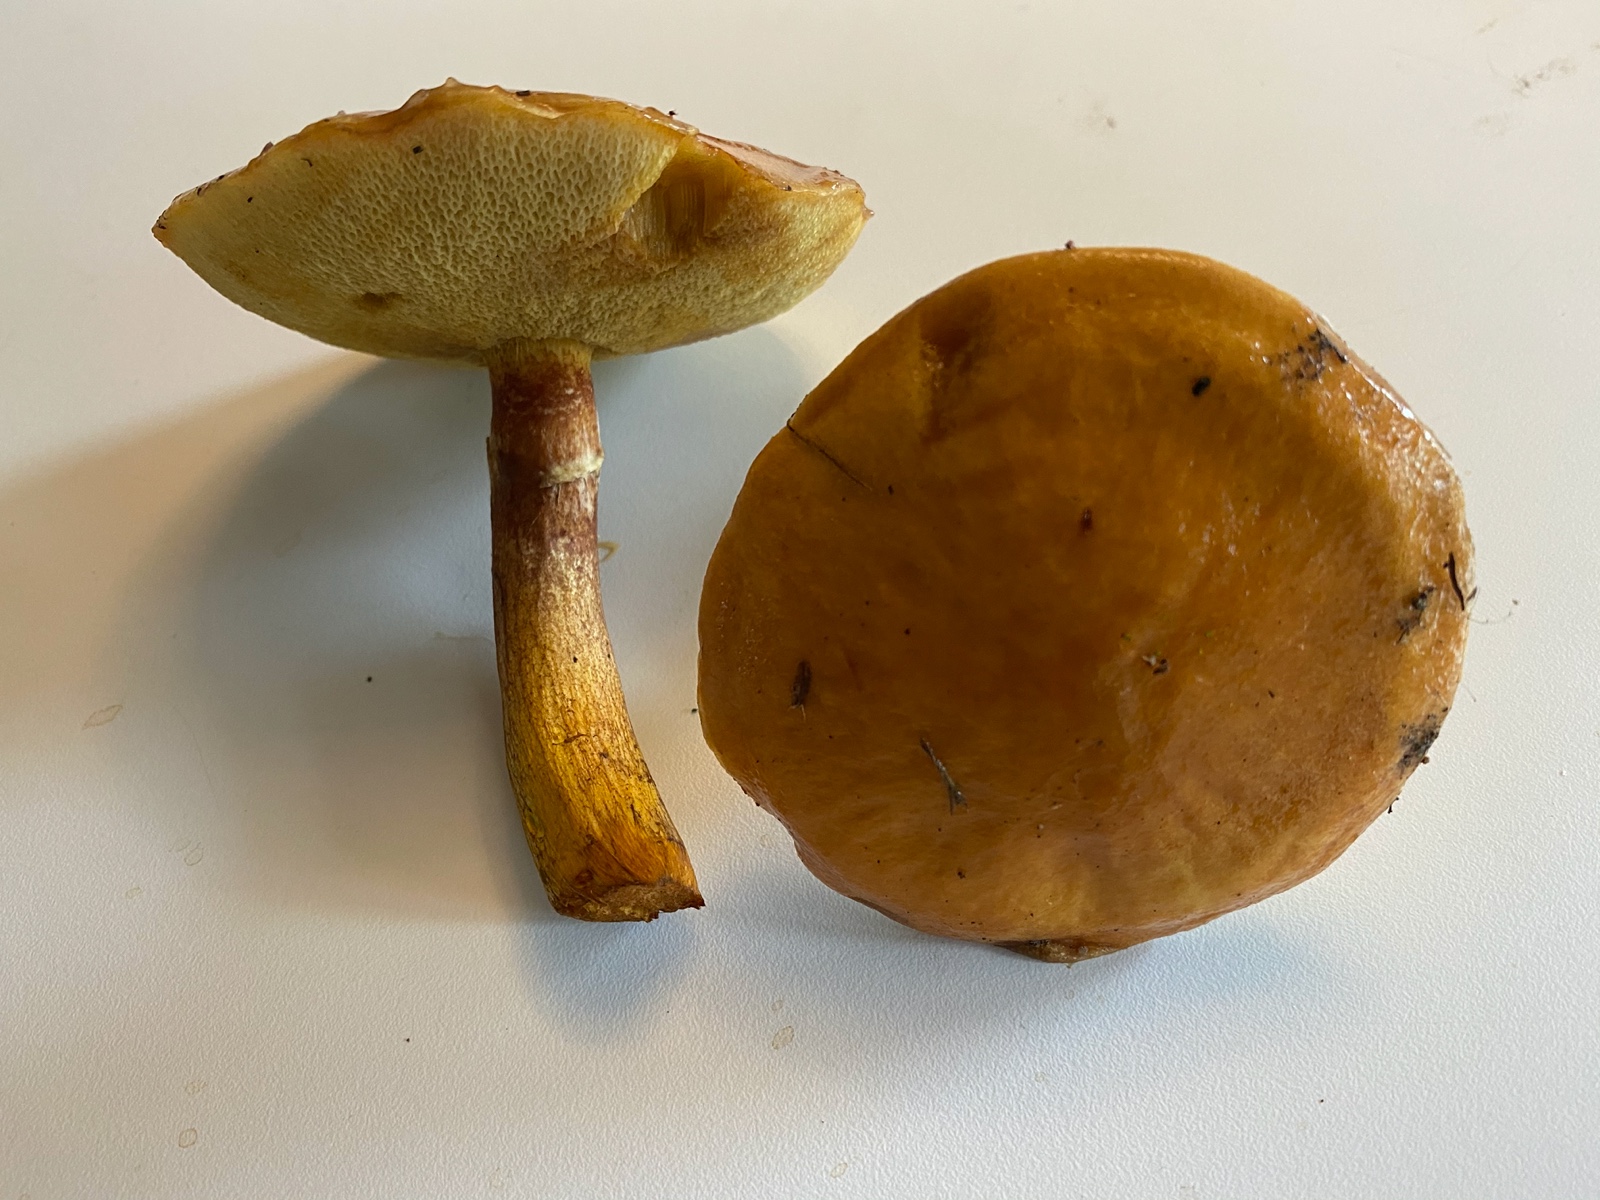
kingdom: Fungi
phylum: Basidiomycota
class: Agaricomycetes
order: Boletales
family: Suillaceae
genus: Suillus
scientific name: Suillus grevillei
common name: lærke-slimrørhat
